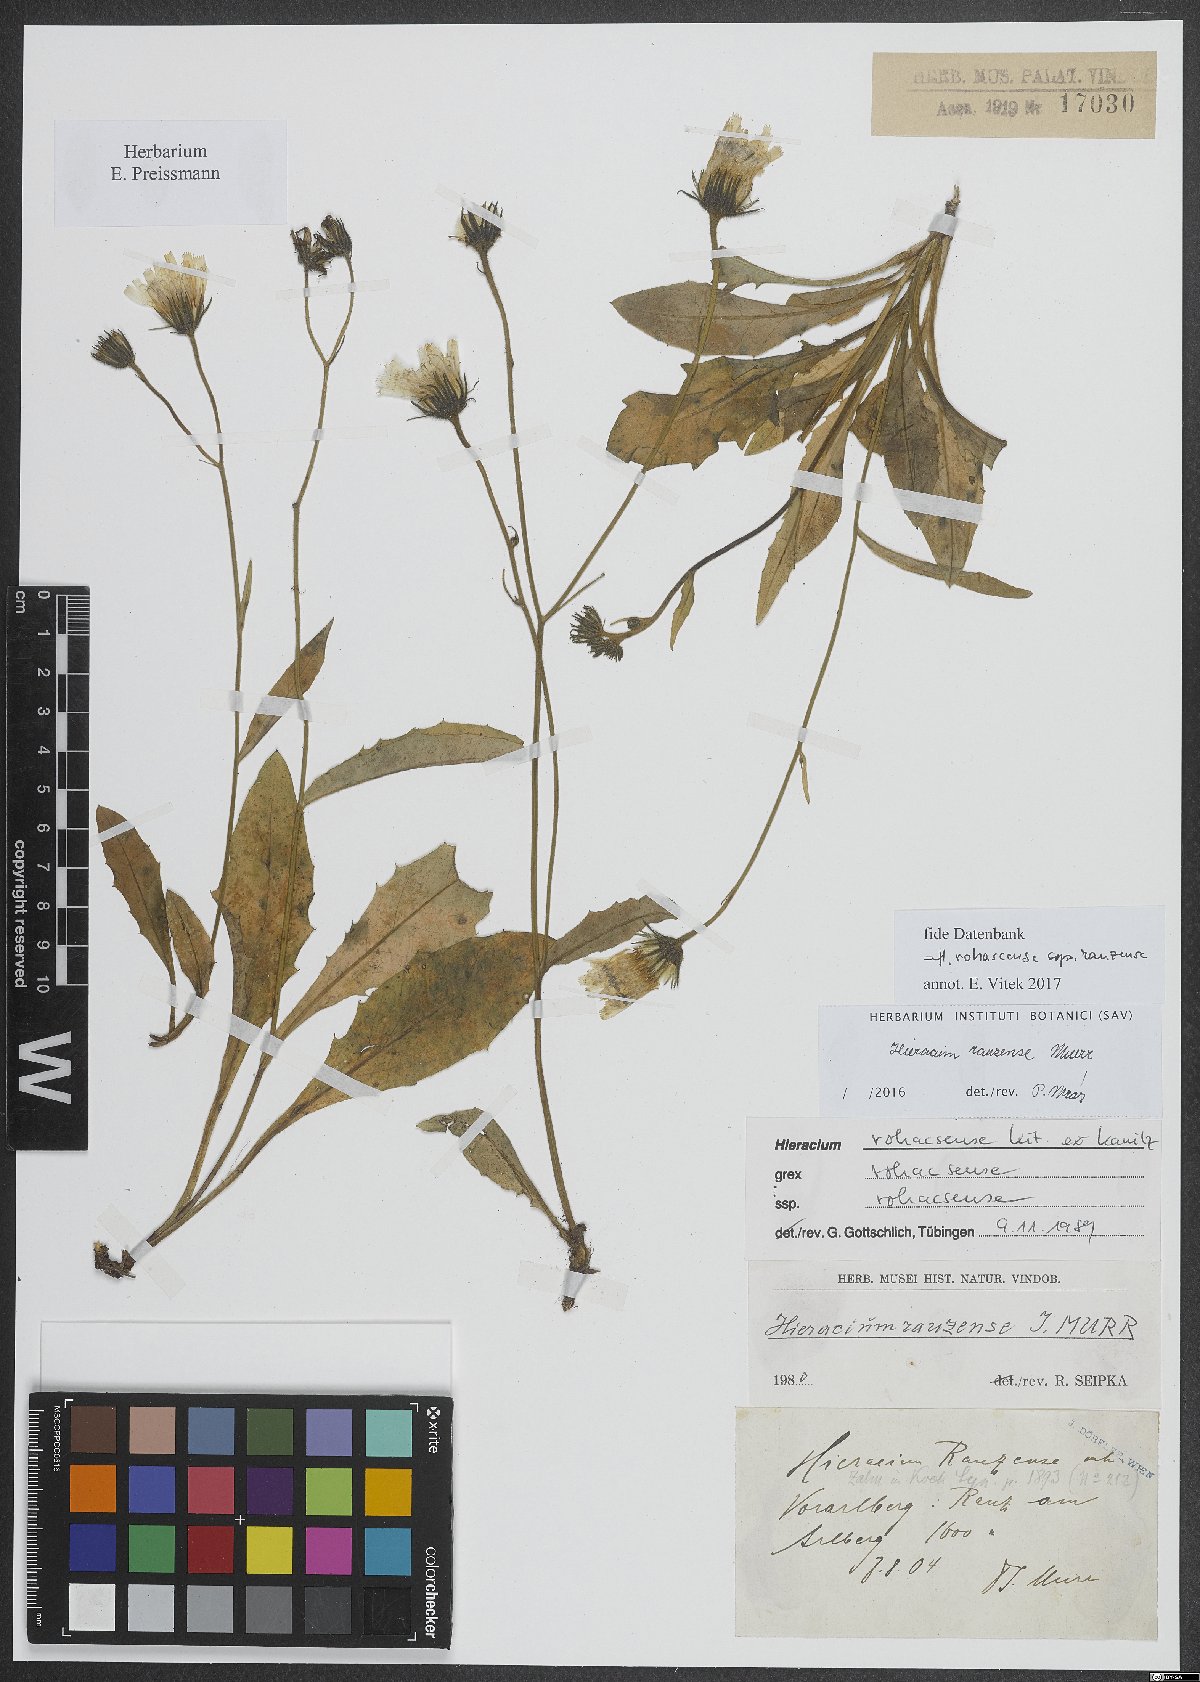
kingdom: Plantae
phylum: Tracheophyta
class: Magnoliopsida
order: Asterales
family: Asteraceae
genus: Hieracium
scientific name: Hieracium rauzense
